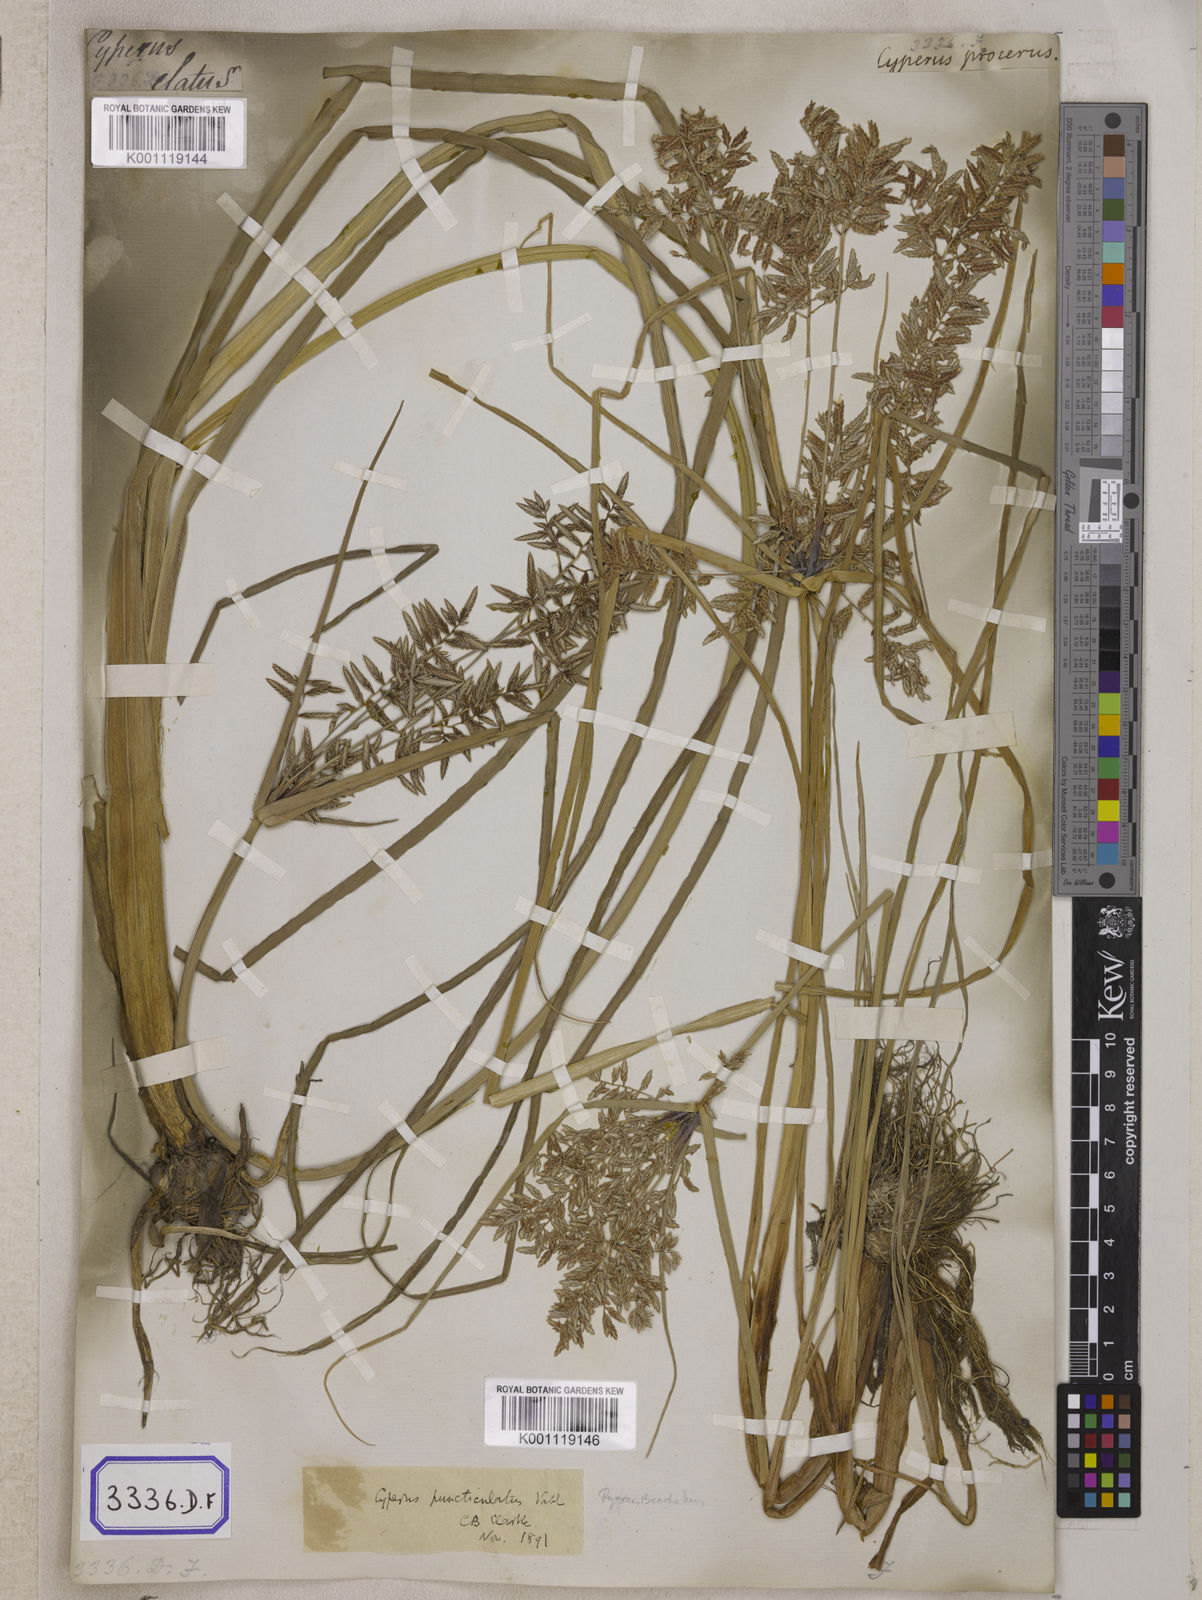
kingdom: Plantae
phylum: Tracheophyta
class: Liliopsida
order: Poales
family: Cyperaceae
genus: Cyperus
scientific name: Cyperus
